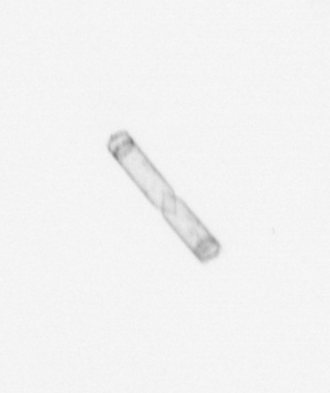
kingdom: Chromista
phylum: Ochrophyta
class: Bacillariophyceae
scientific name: Bacillariophyceae
